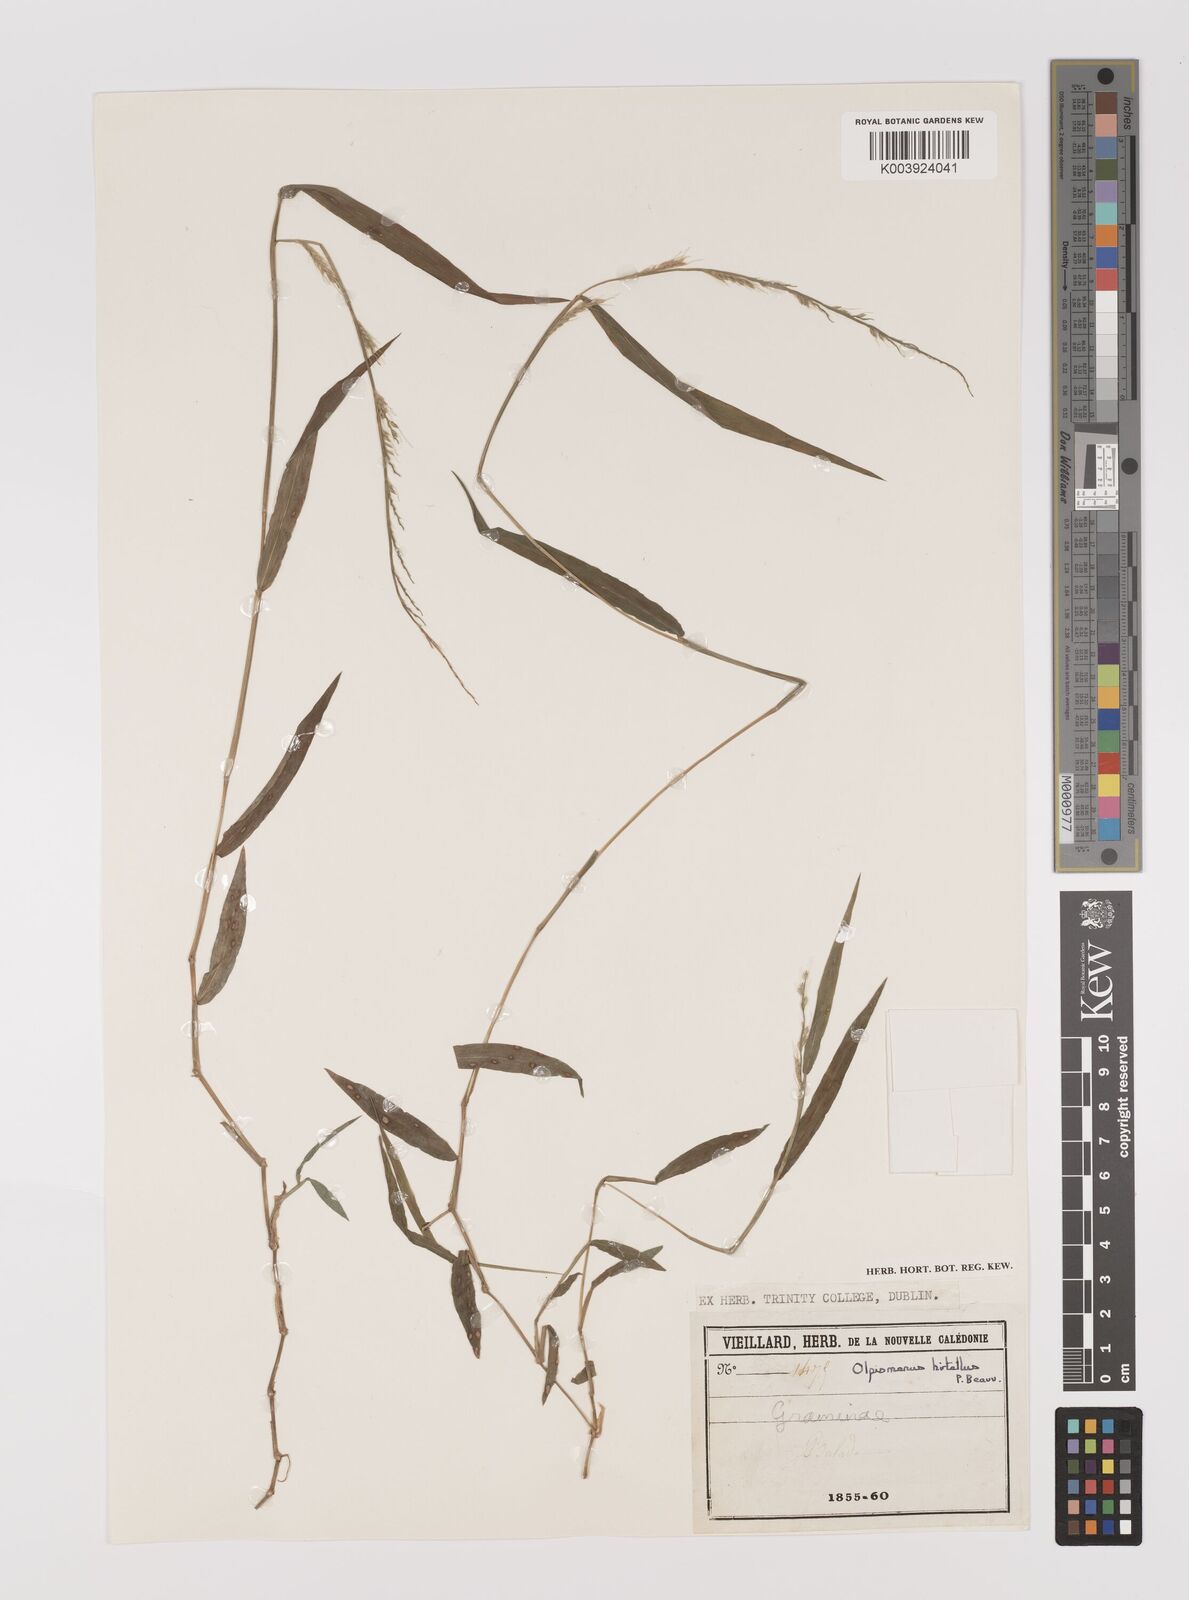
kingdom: Plantae
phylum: Tracheophyta
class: Liliopsida
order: Poales
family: Poaceae
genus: Oplismenus
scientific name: Oplismenus hirtellus
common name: Basketgrass
